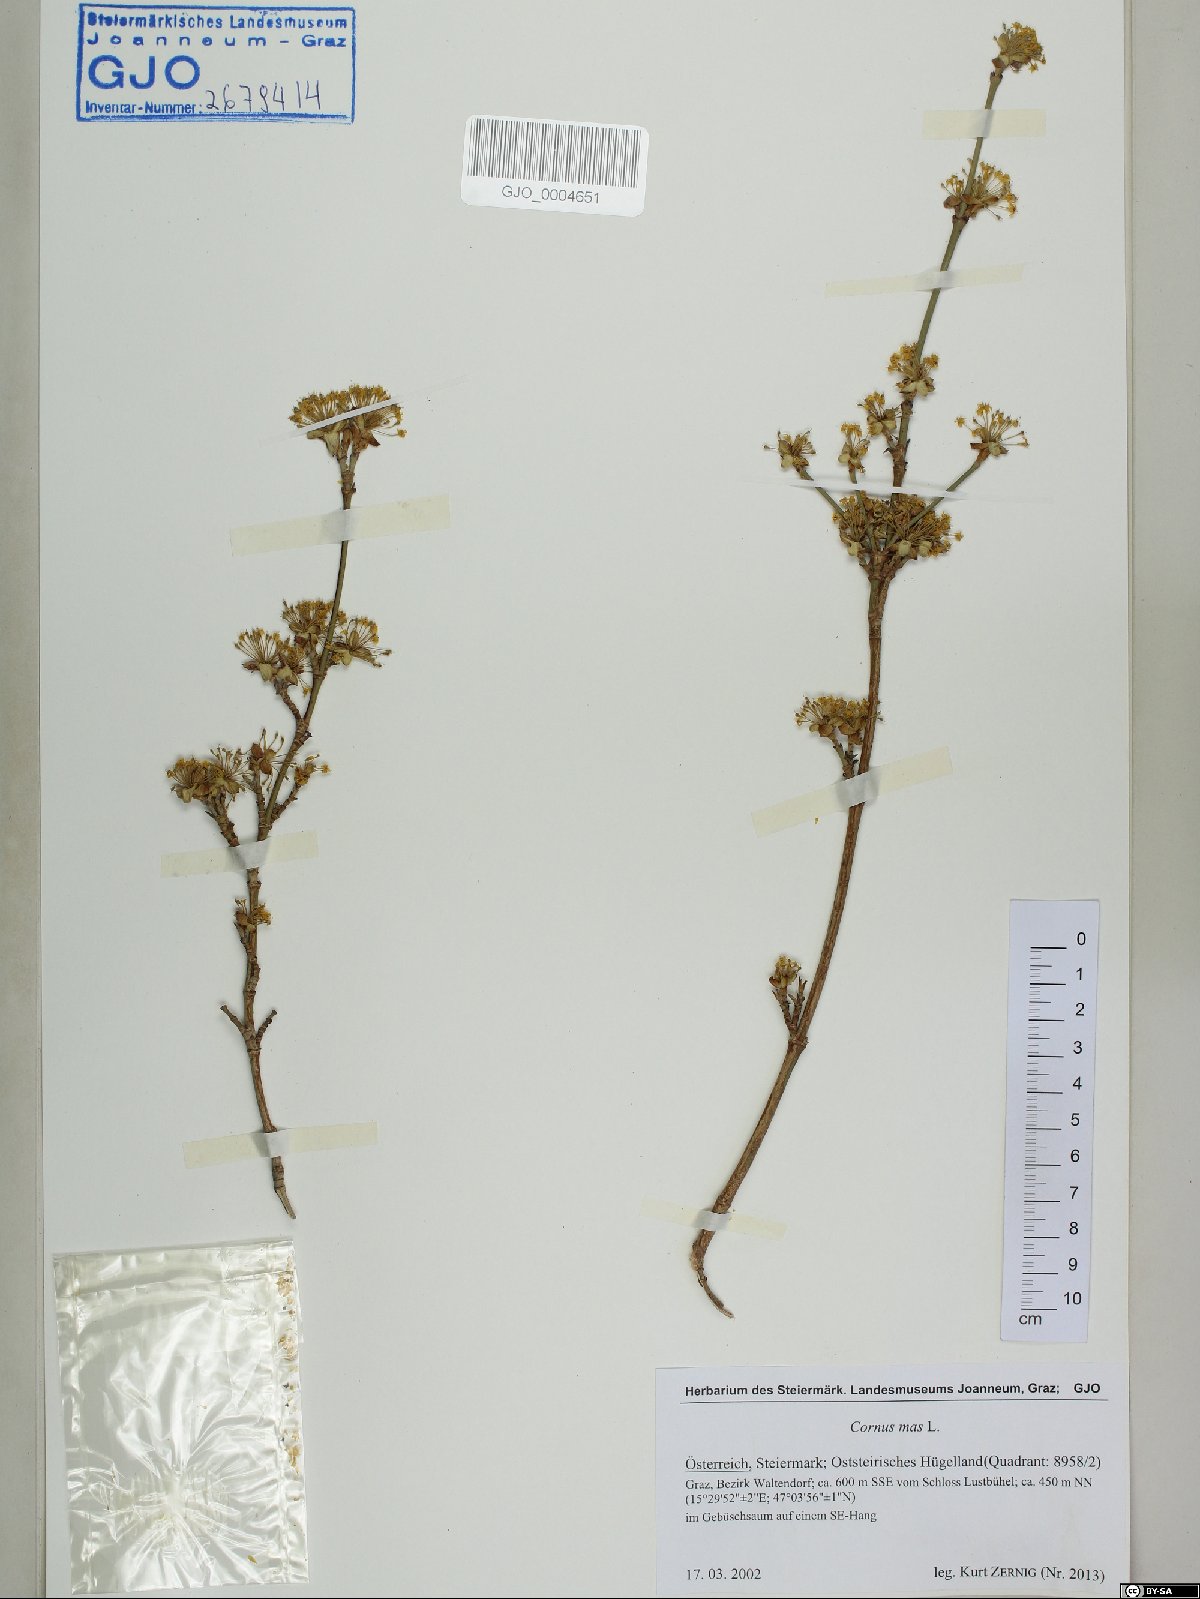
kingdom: Plantae
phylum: Tracheophyta
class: Magnoliopsida
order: Cornales
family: Cornaceae
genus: Cornus
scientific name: Cornus mas
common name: Cornelian-cherry
